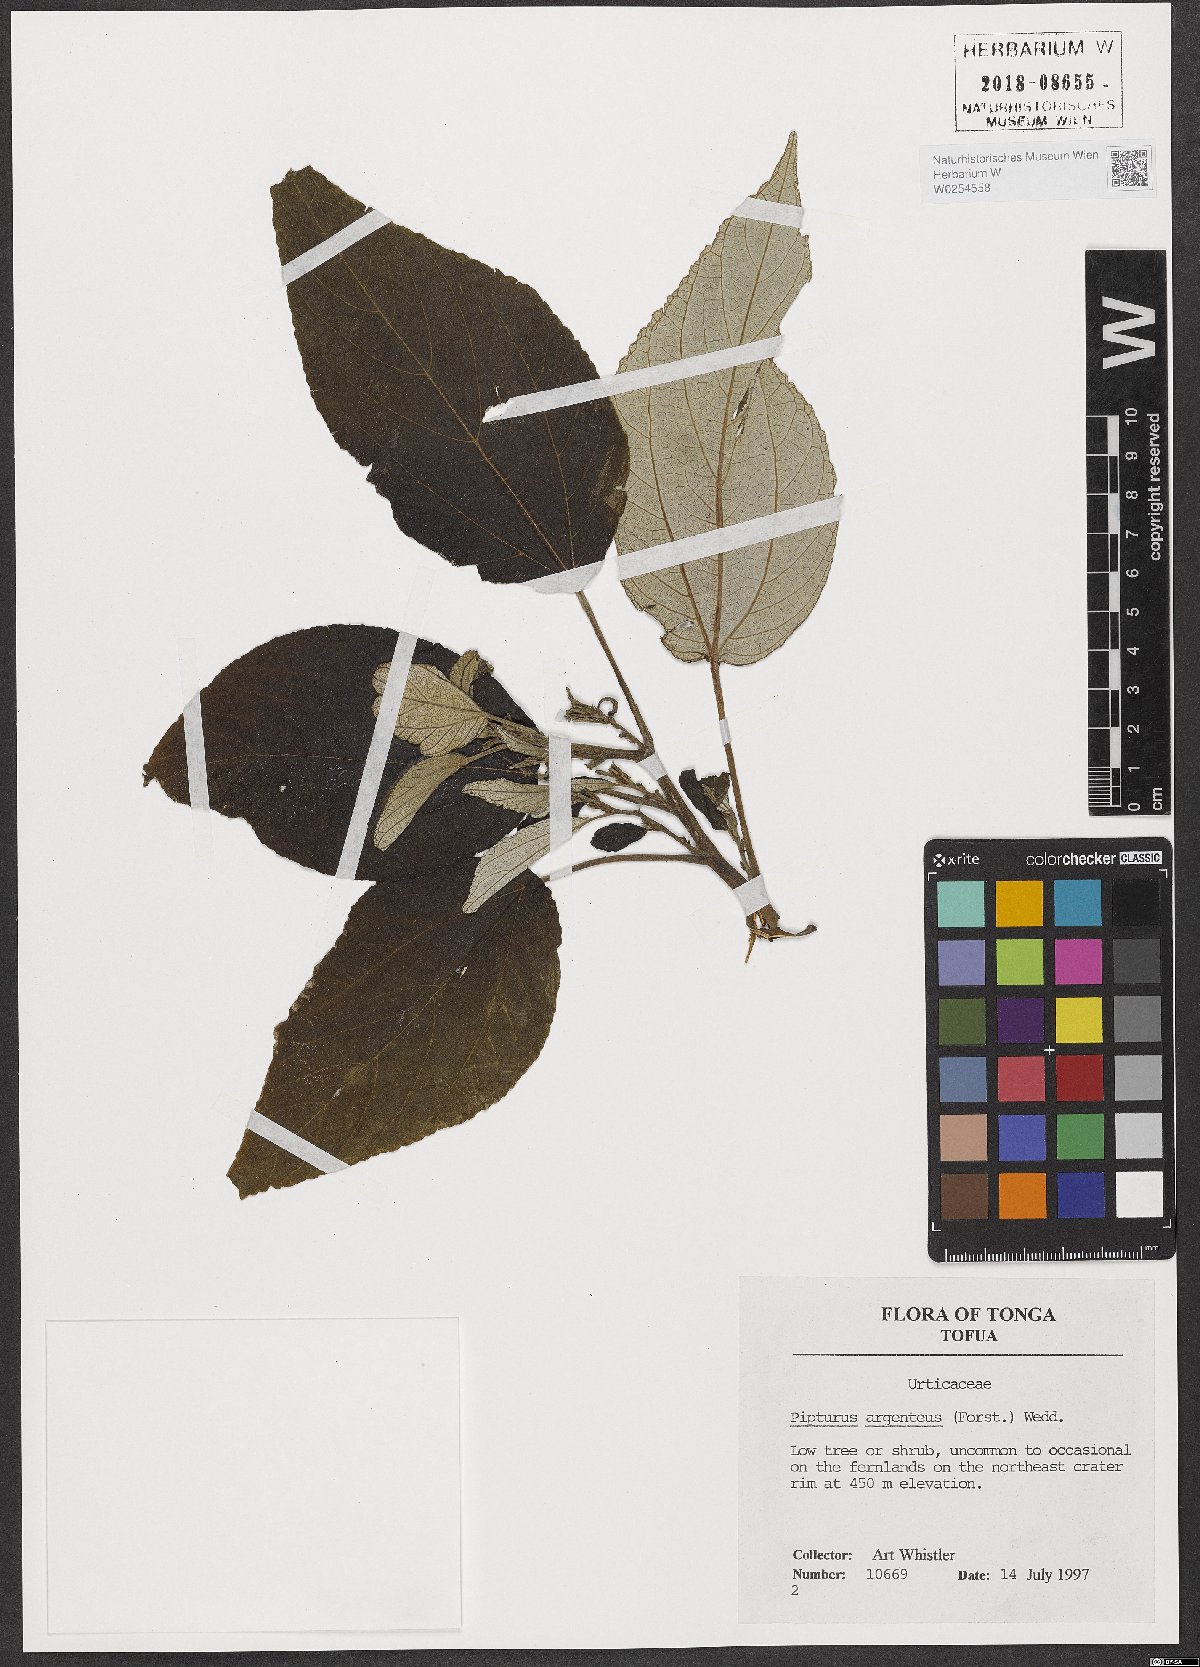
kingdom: Plantae
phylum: Tracheophyta
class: Magnoliopsida
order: Rosales
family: Urticaceae
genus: Pipturus
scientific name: Pipturus argenteus
